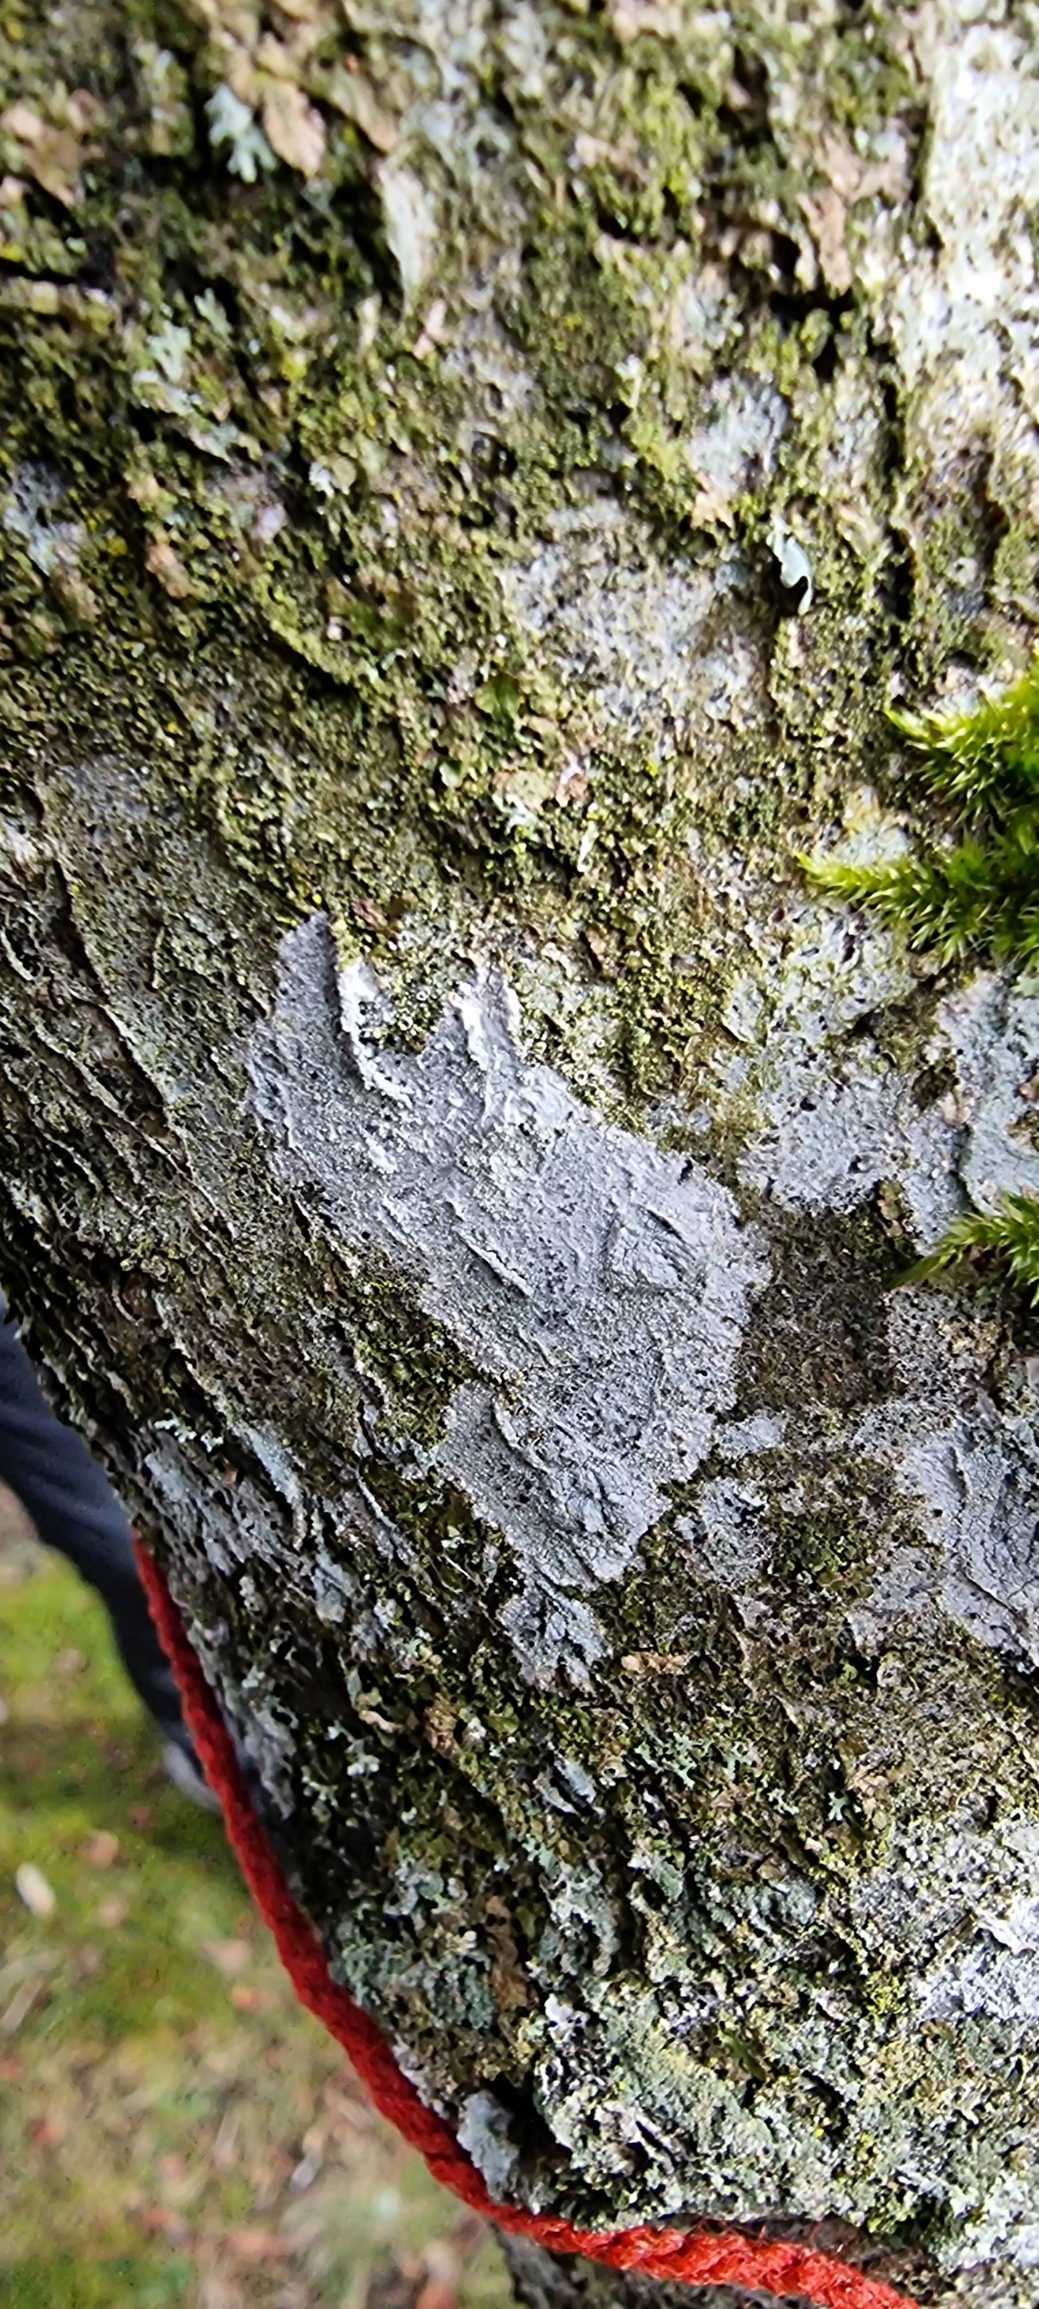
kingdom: Fungi
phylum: Ascomycota
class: Lecanoromycetes
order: Ostropales
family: Phlyctidaceae
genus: Phlyctis
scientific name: Phlyctis argena
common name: Almindelig sølvlav
